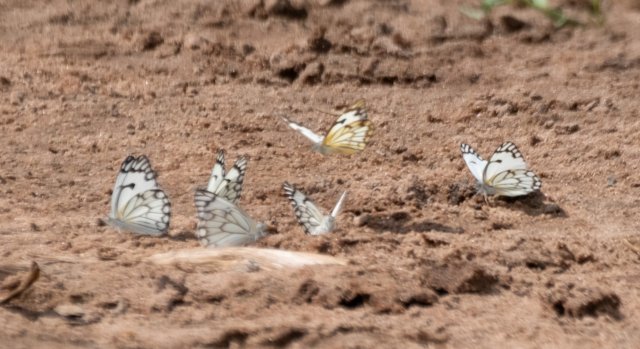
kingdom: Animalia
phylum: Arthropoda
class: Insecta
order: Lepidoptera
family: Pieridae
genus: Belenois
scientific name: Belenois aurota
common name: Pioneer White
